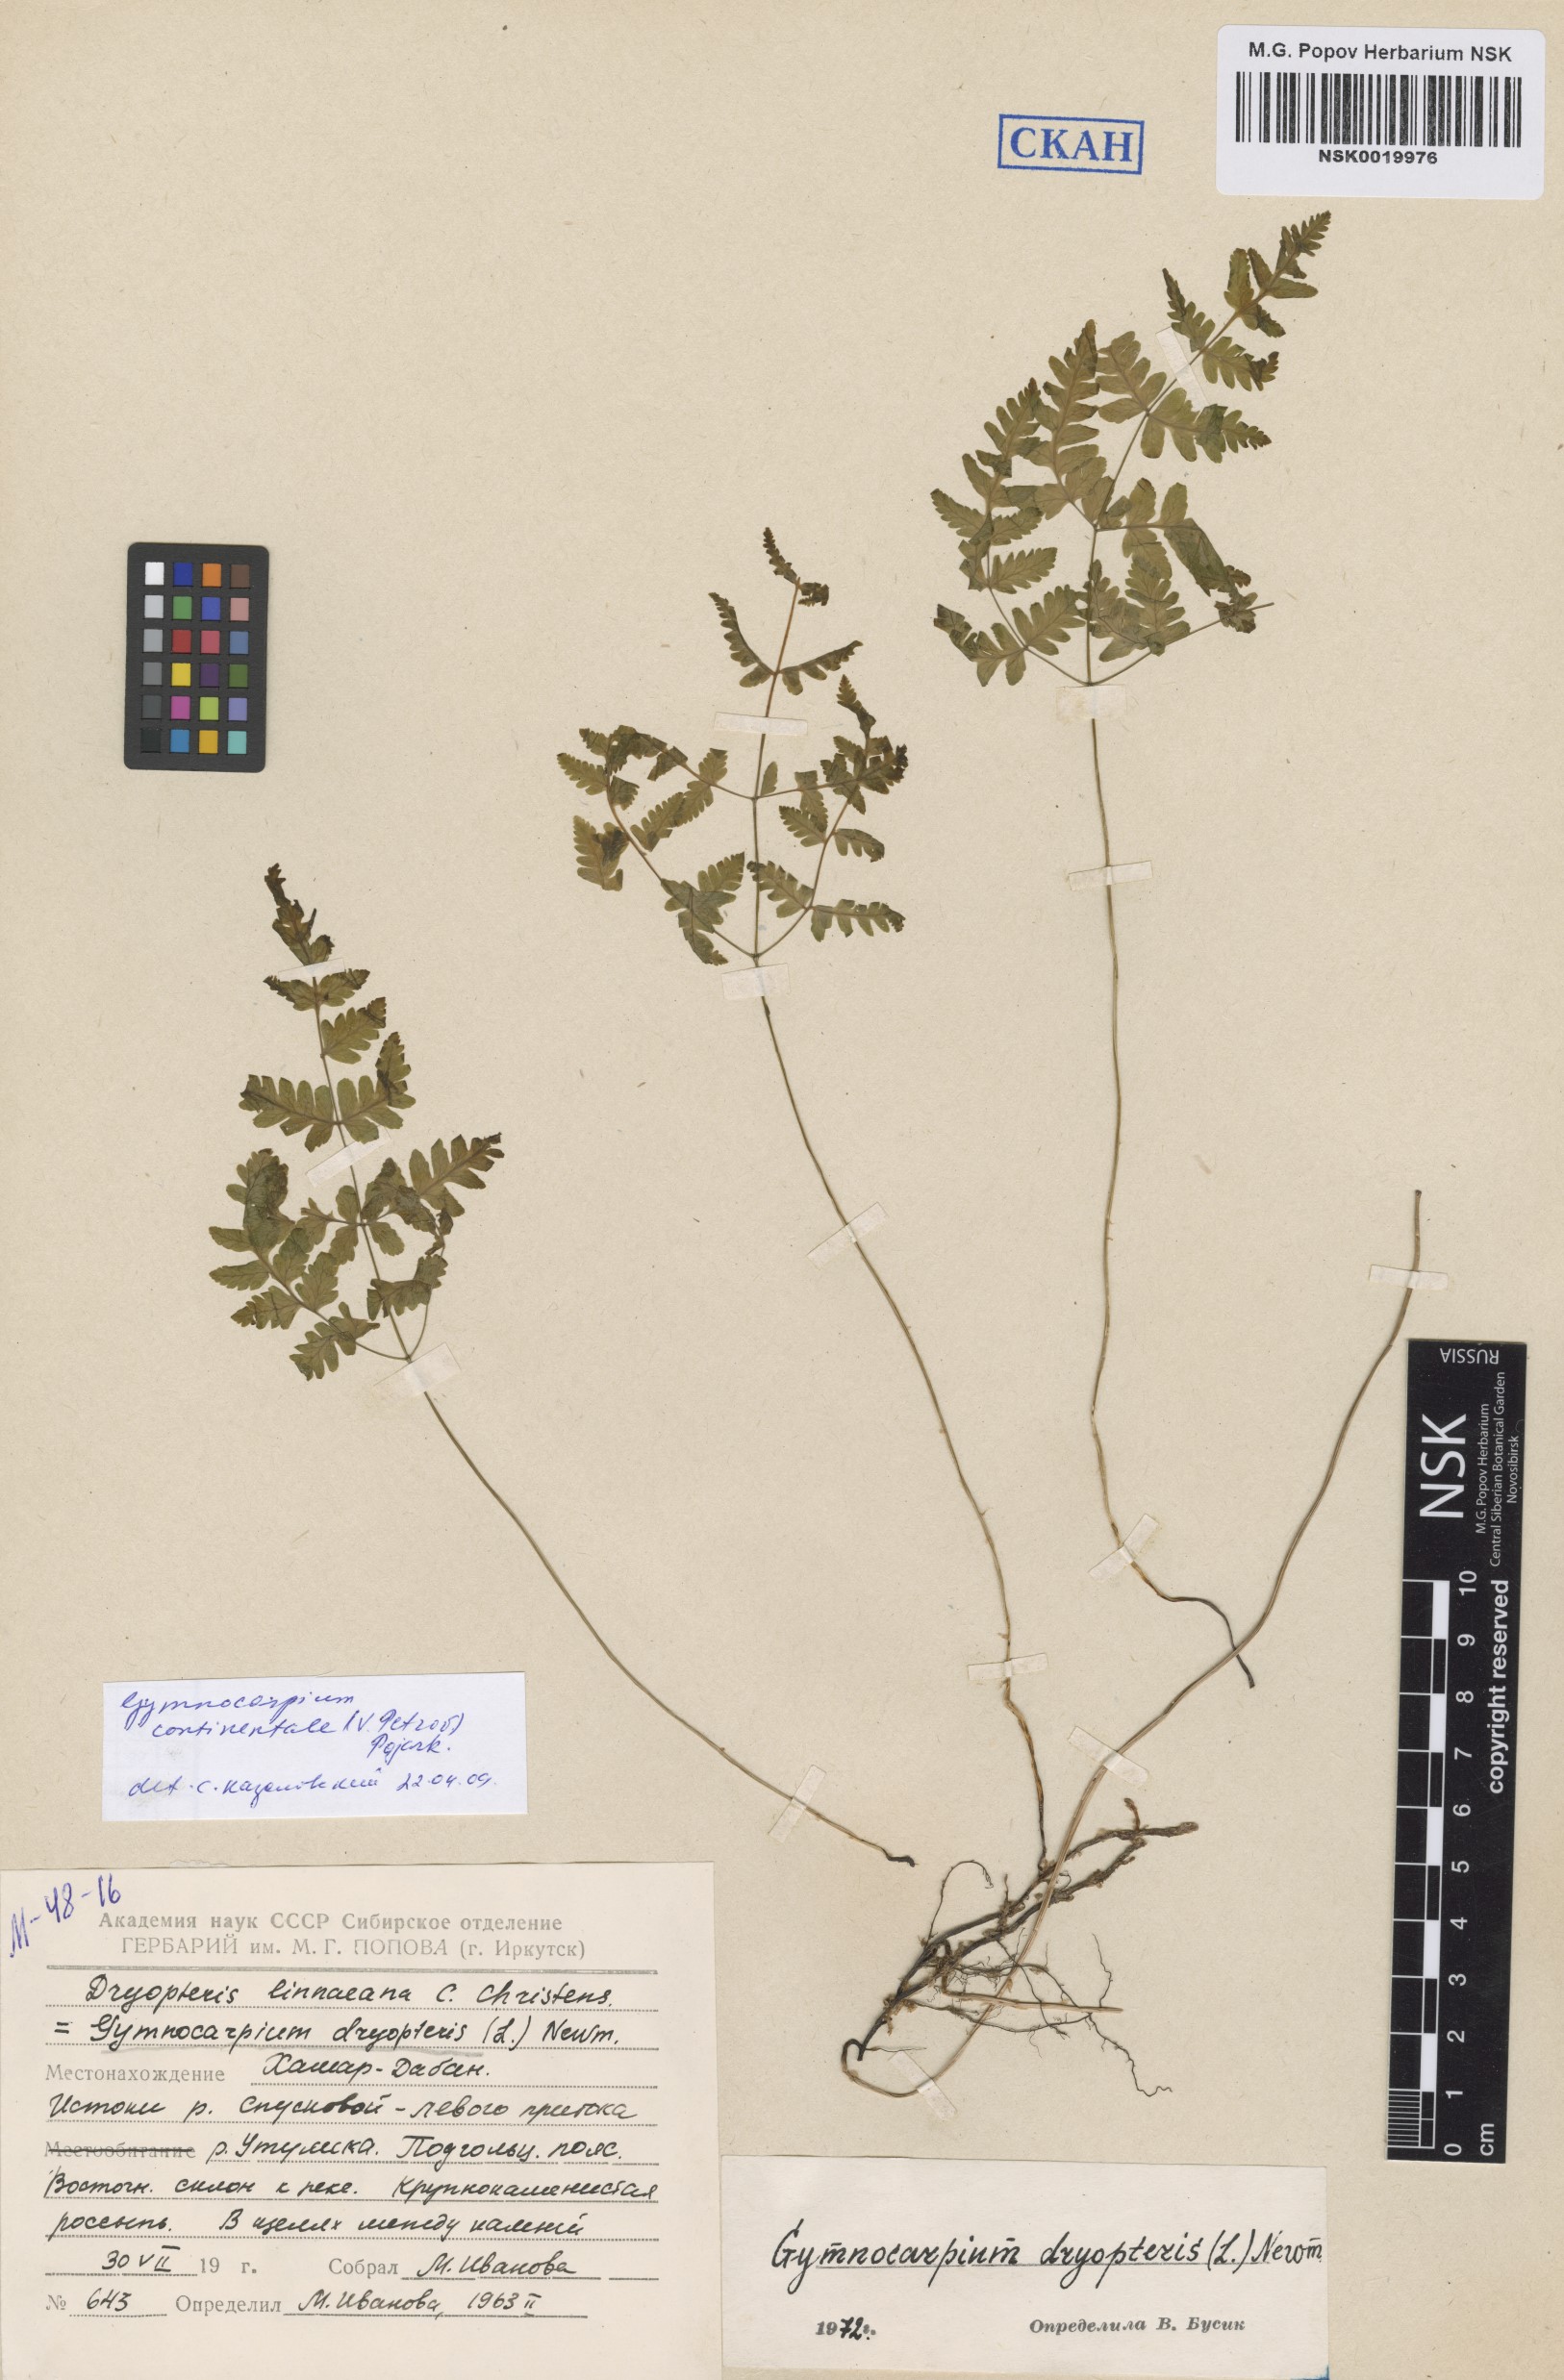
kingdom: Plantae
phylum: Tracheophyta
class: Polypodiopsida
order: Polypodiales
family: Cystopteridaceae
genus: Gymnocarpium
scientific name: Gymnocarpium continentale
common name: Asian oak fern
